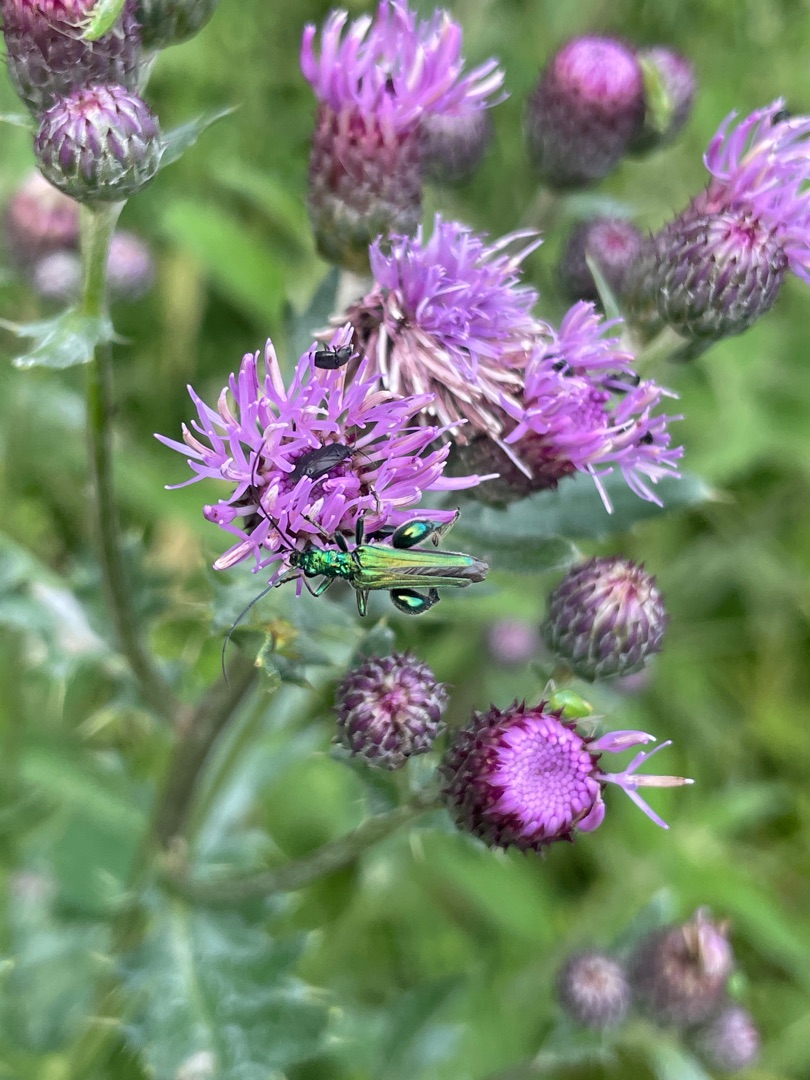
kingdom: Animalia
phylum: Arthropoda
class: Insecta
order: Coleoptera
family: Oedemeridae
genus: Oedemera
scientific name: Oedemera nobilis
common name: Tyklårssolbille
